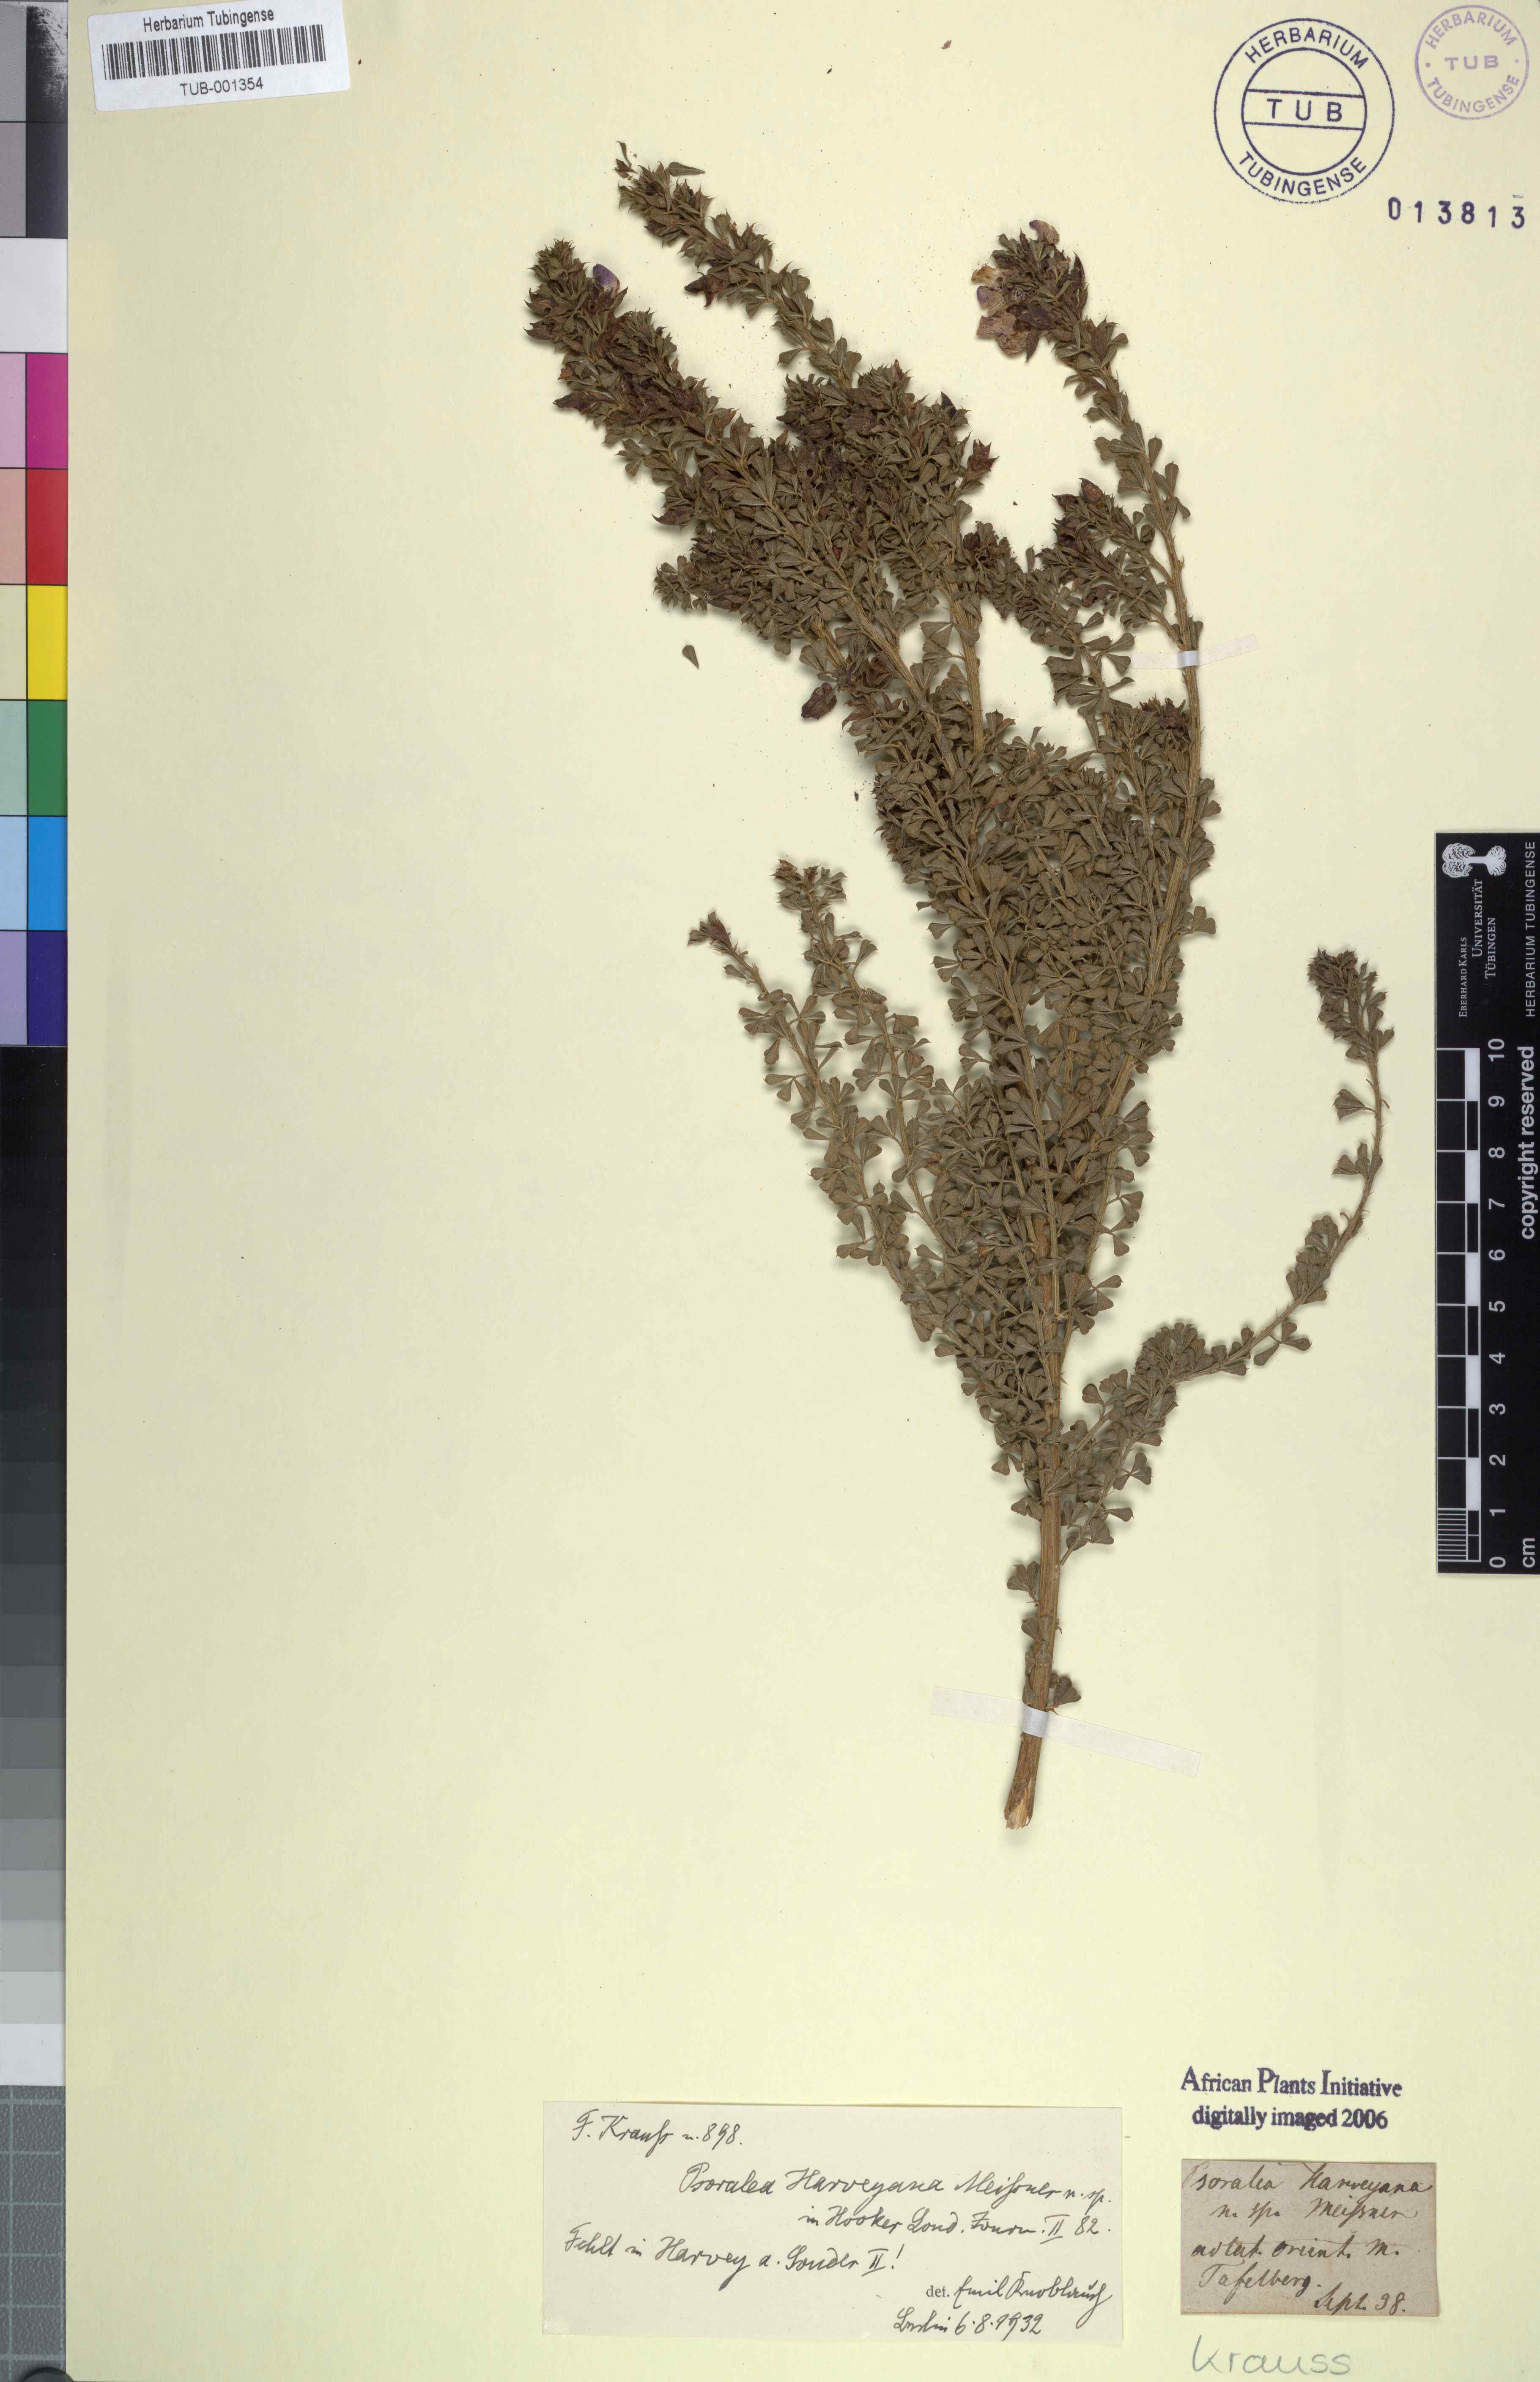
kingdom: Plantae
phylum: Tracheophyta
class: Magnoliopsida
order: Fabales
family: Fabaceae
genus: Psoralea
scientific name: Psoralea aculeata
